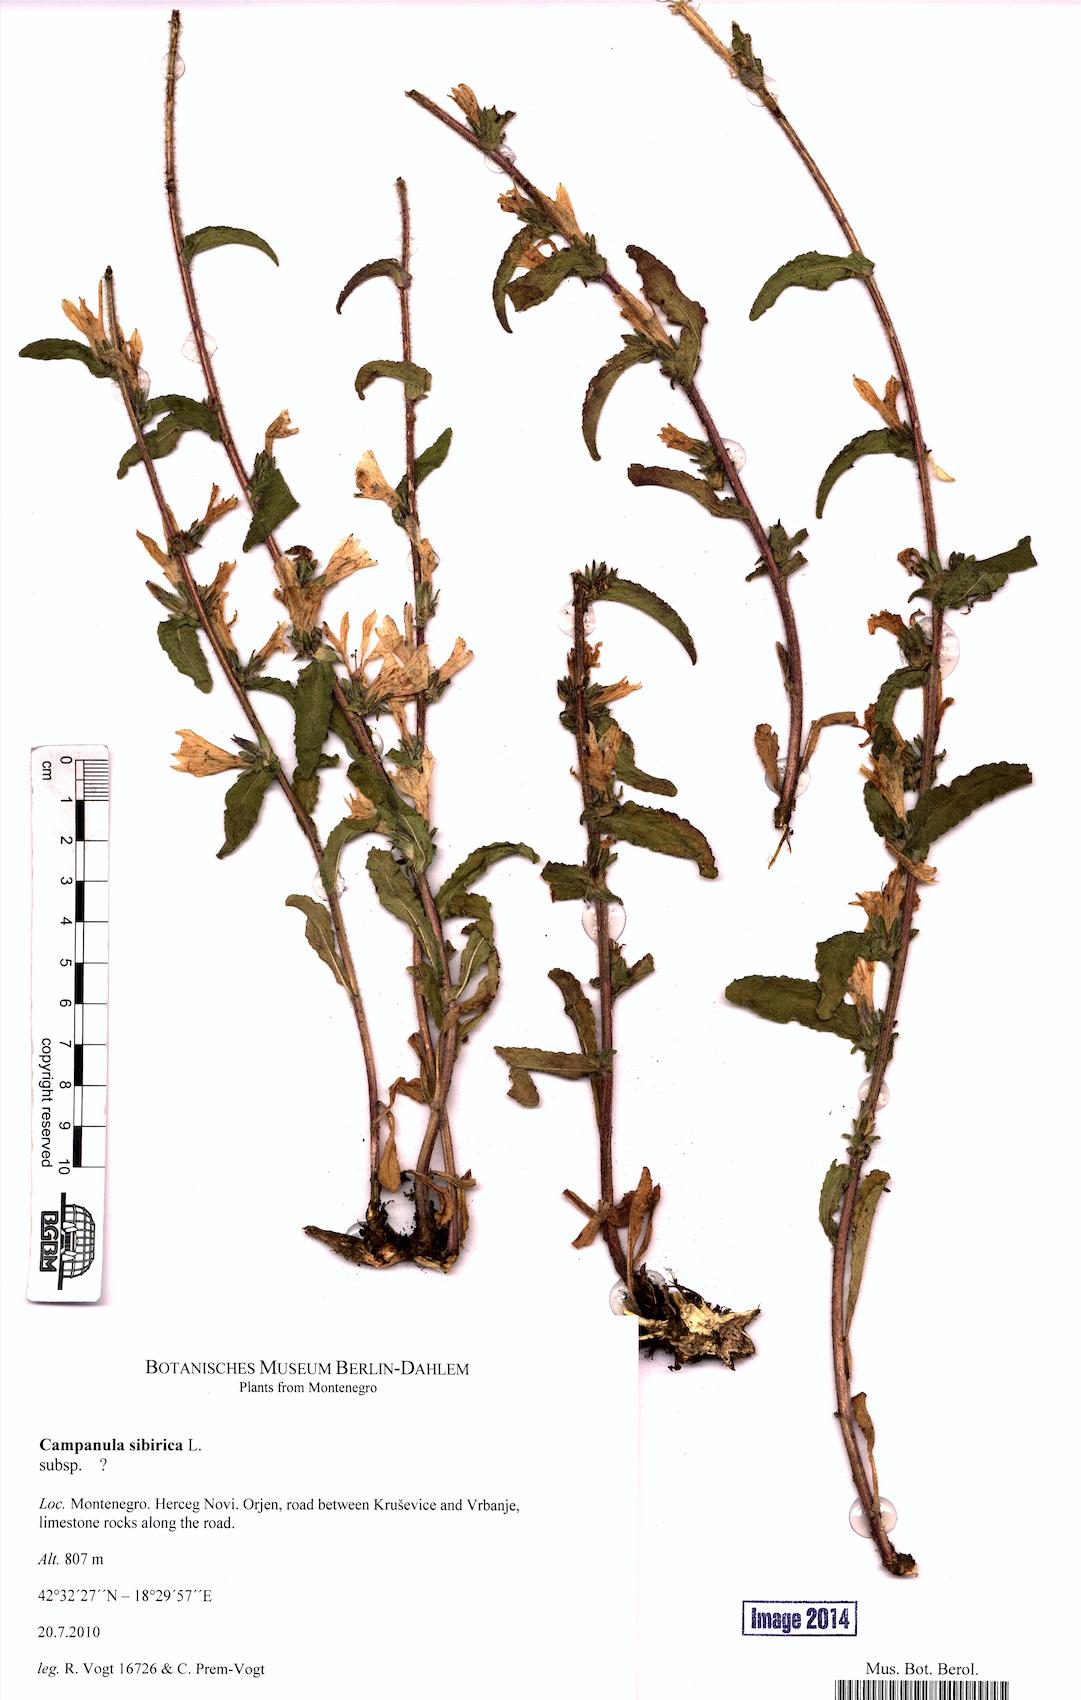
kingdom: Plantae
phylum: Tracheophyta
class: Magnoliopsida
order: Asterales
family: Campanulaceae
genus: Campanula
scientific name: Campanula sibirica
